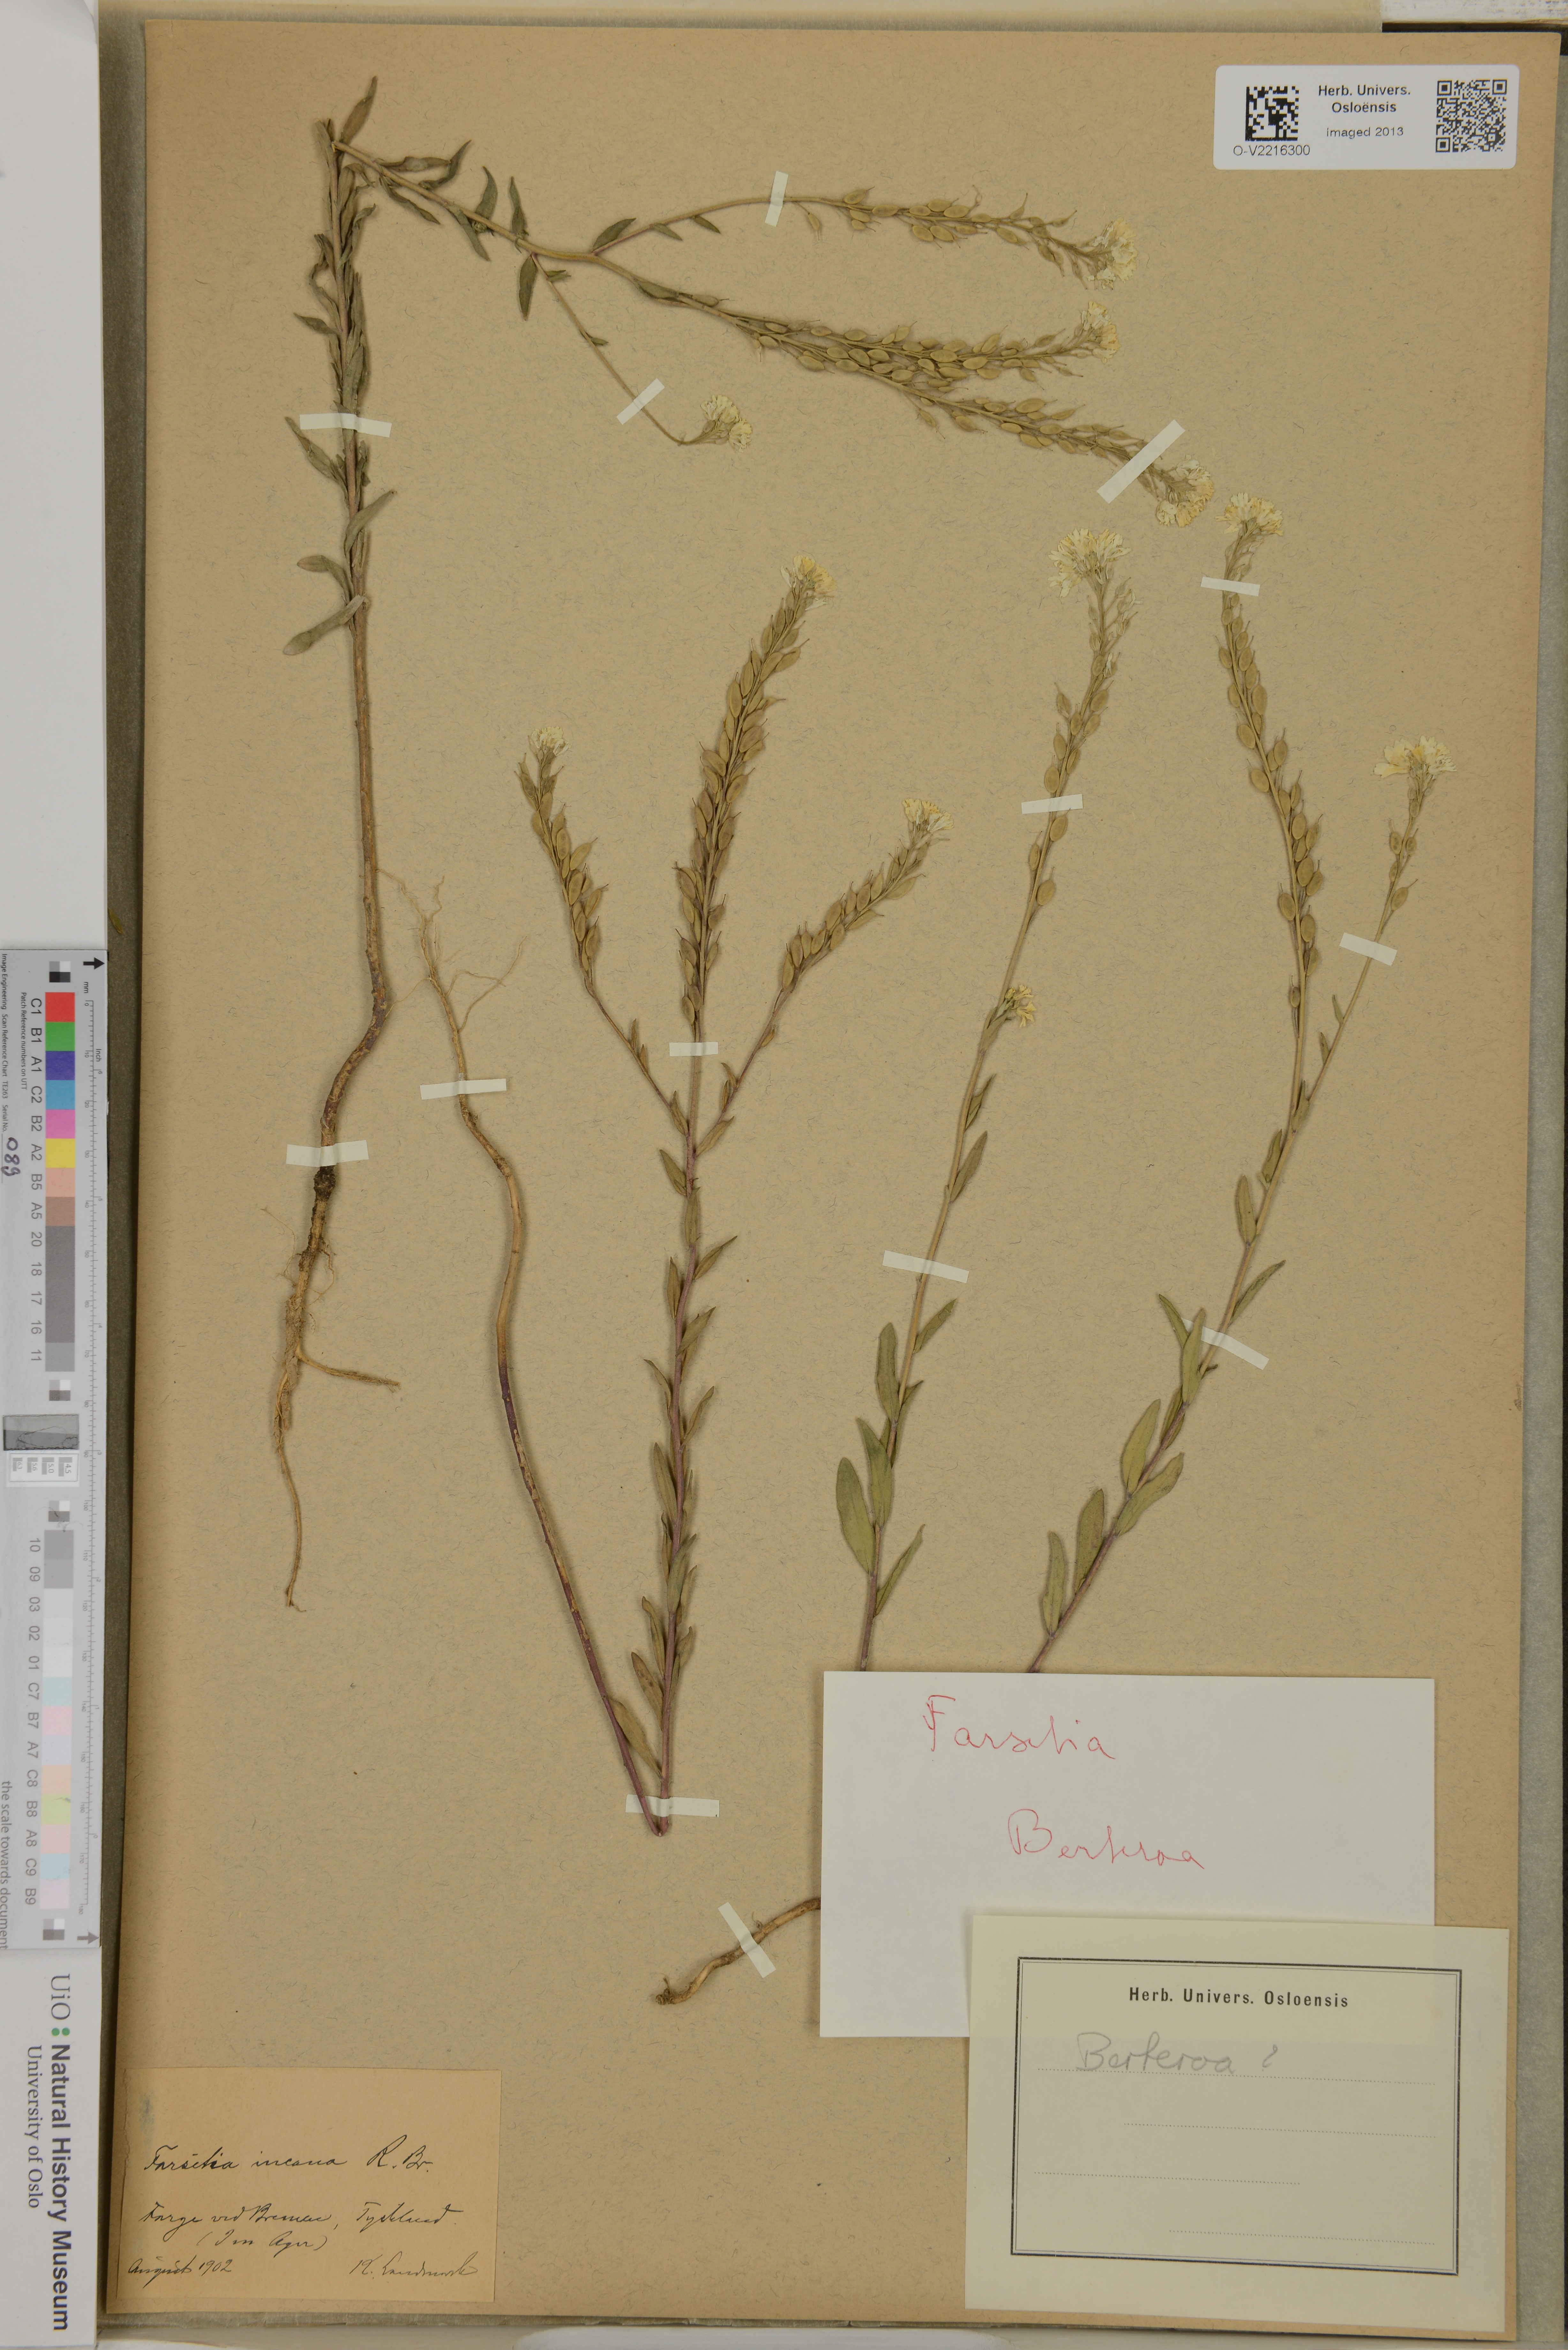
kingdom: Plantae
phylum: Tracheophyta
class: Magnoliopsida
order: Brassicales
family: Brassicaceae
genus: Berteroa
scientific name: Berteroa incana
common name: Hoary alison
